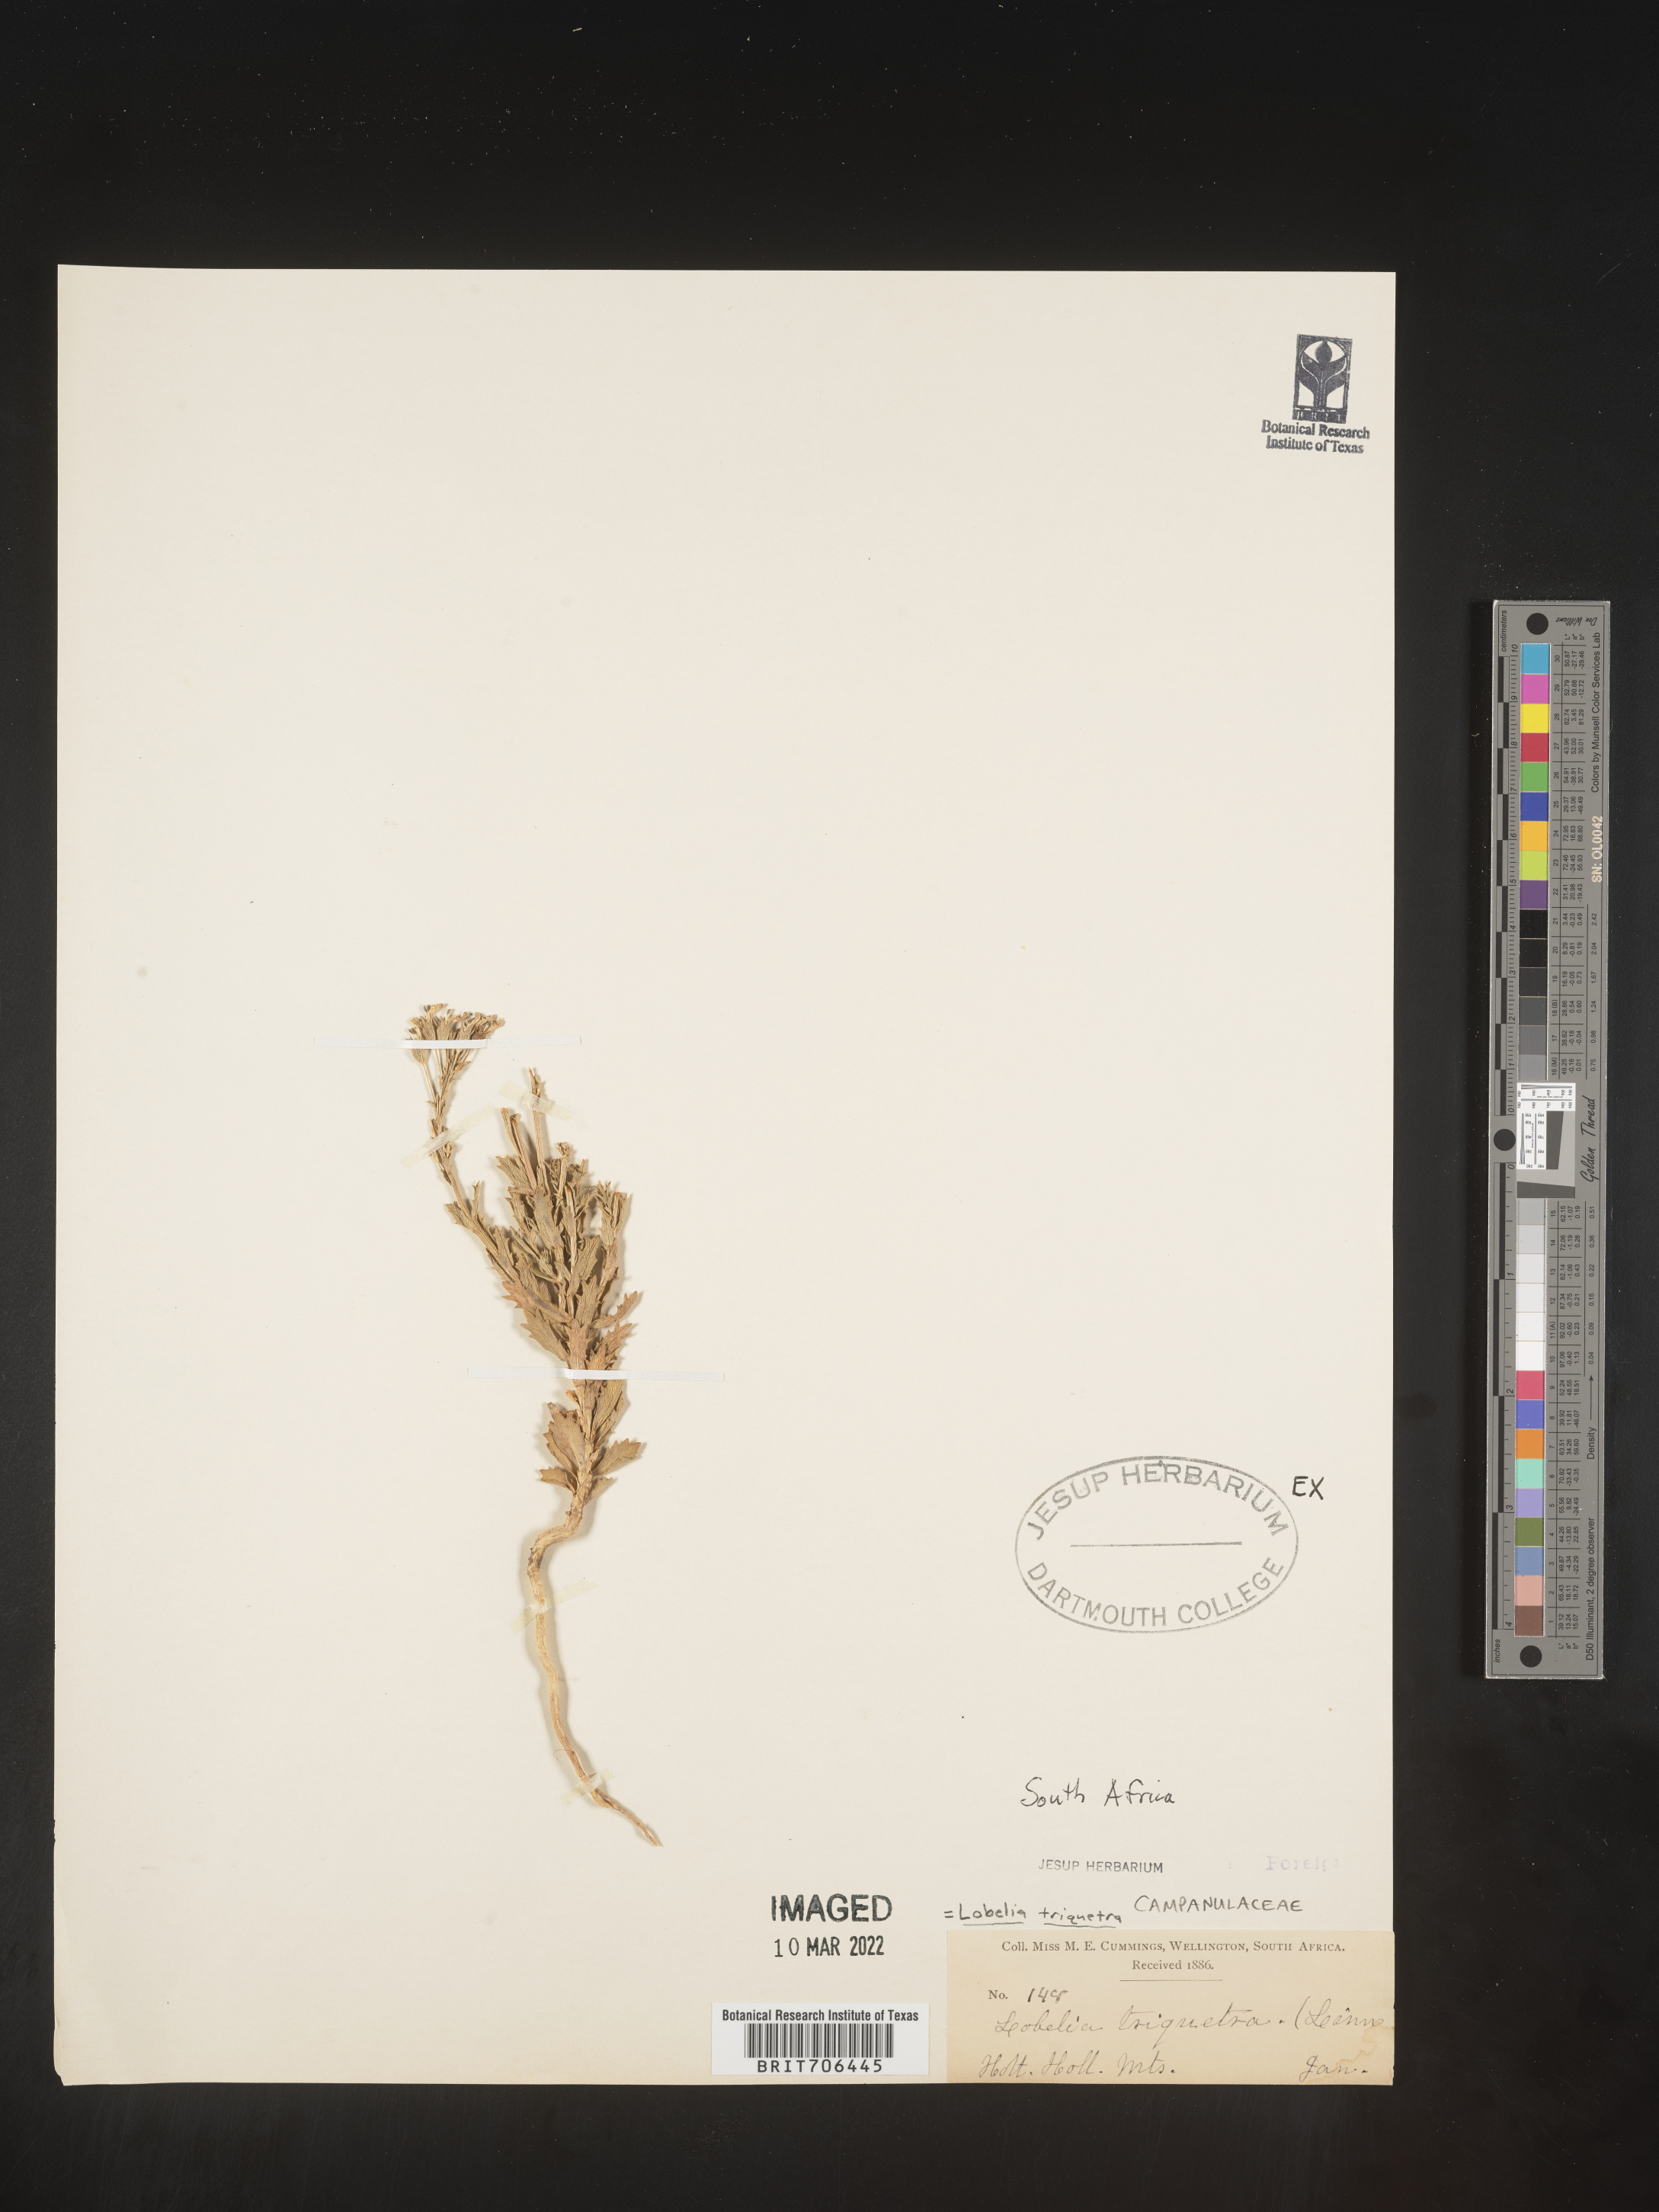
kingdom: Plantae
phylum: Tracheophyta
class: Magnoliopsida
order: Asterales
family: Campanulaceae
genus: Lobelia
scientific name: Lobelia
